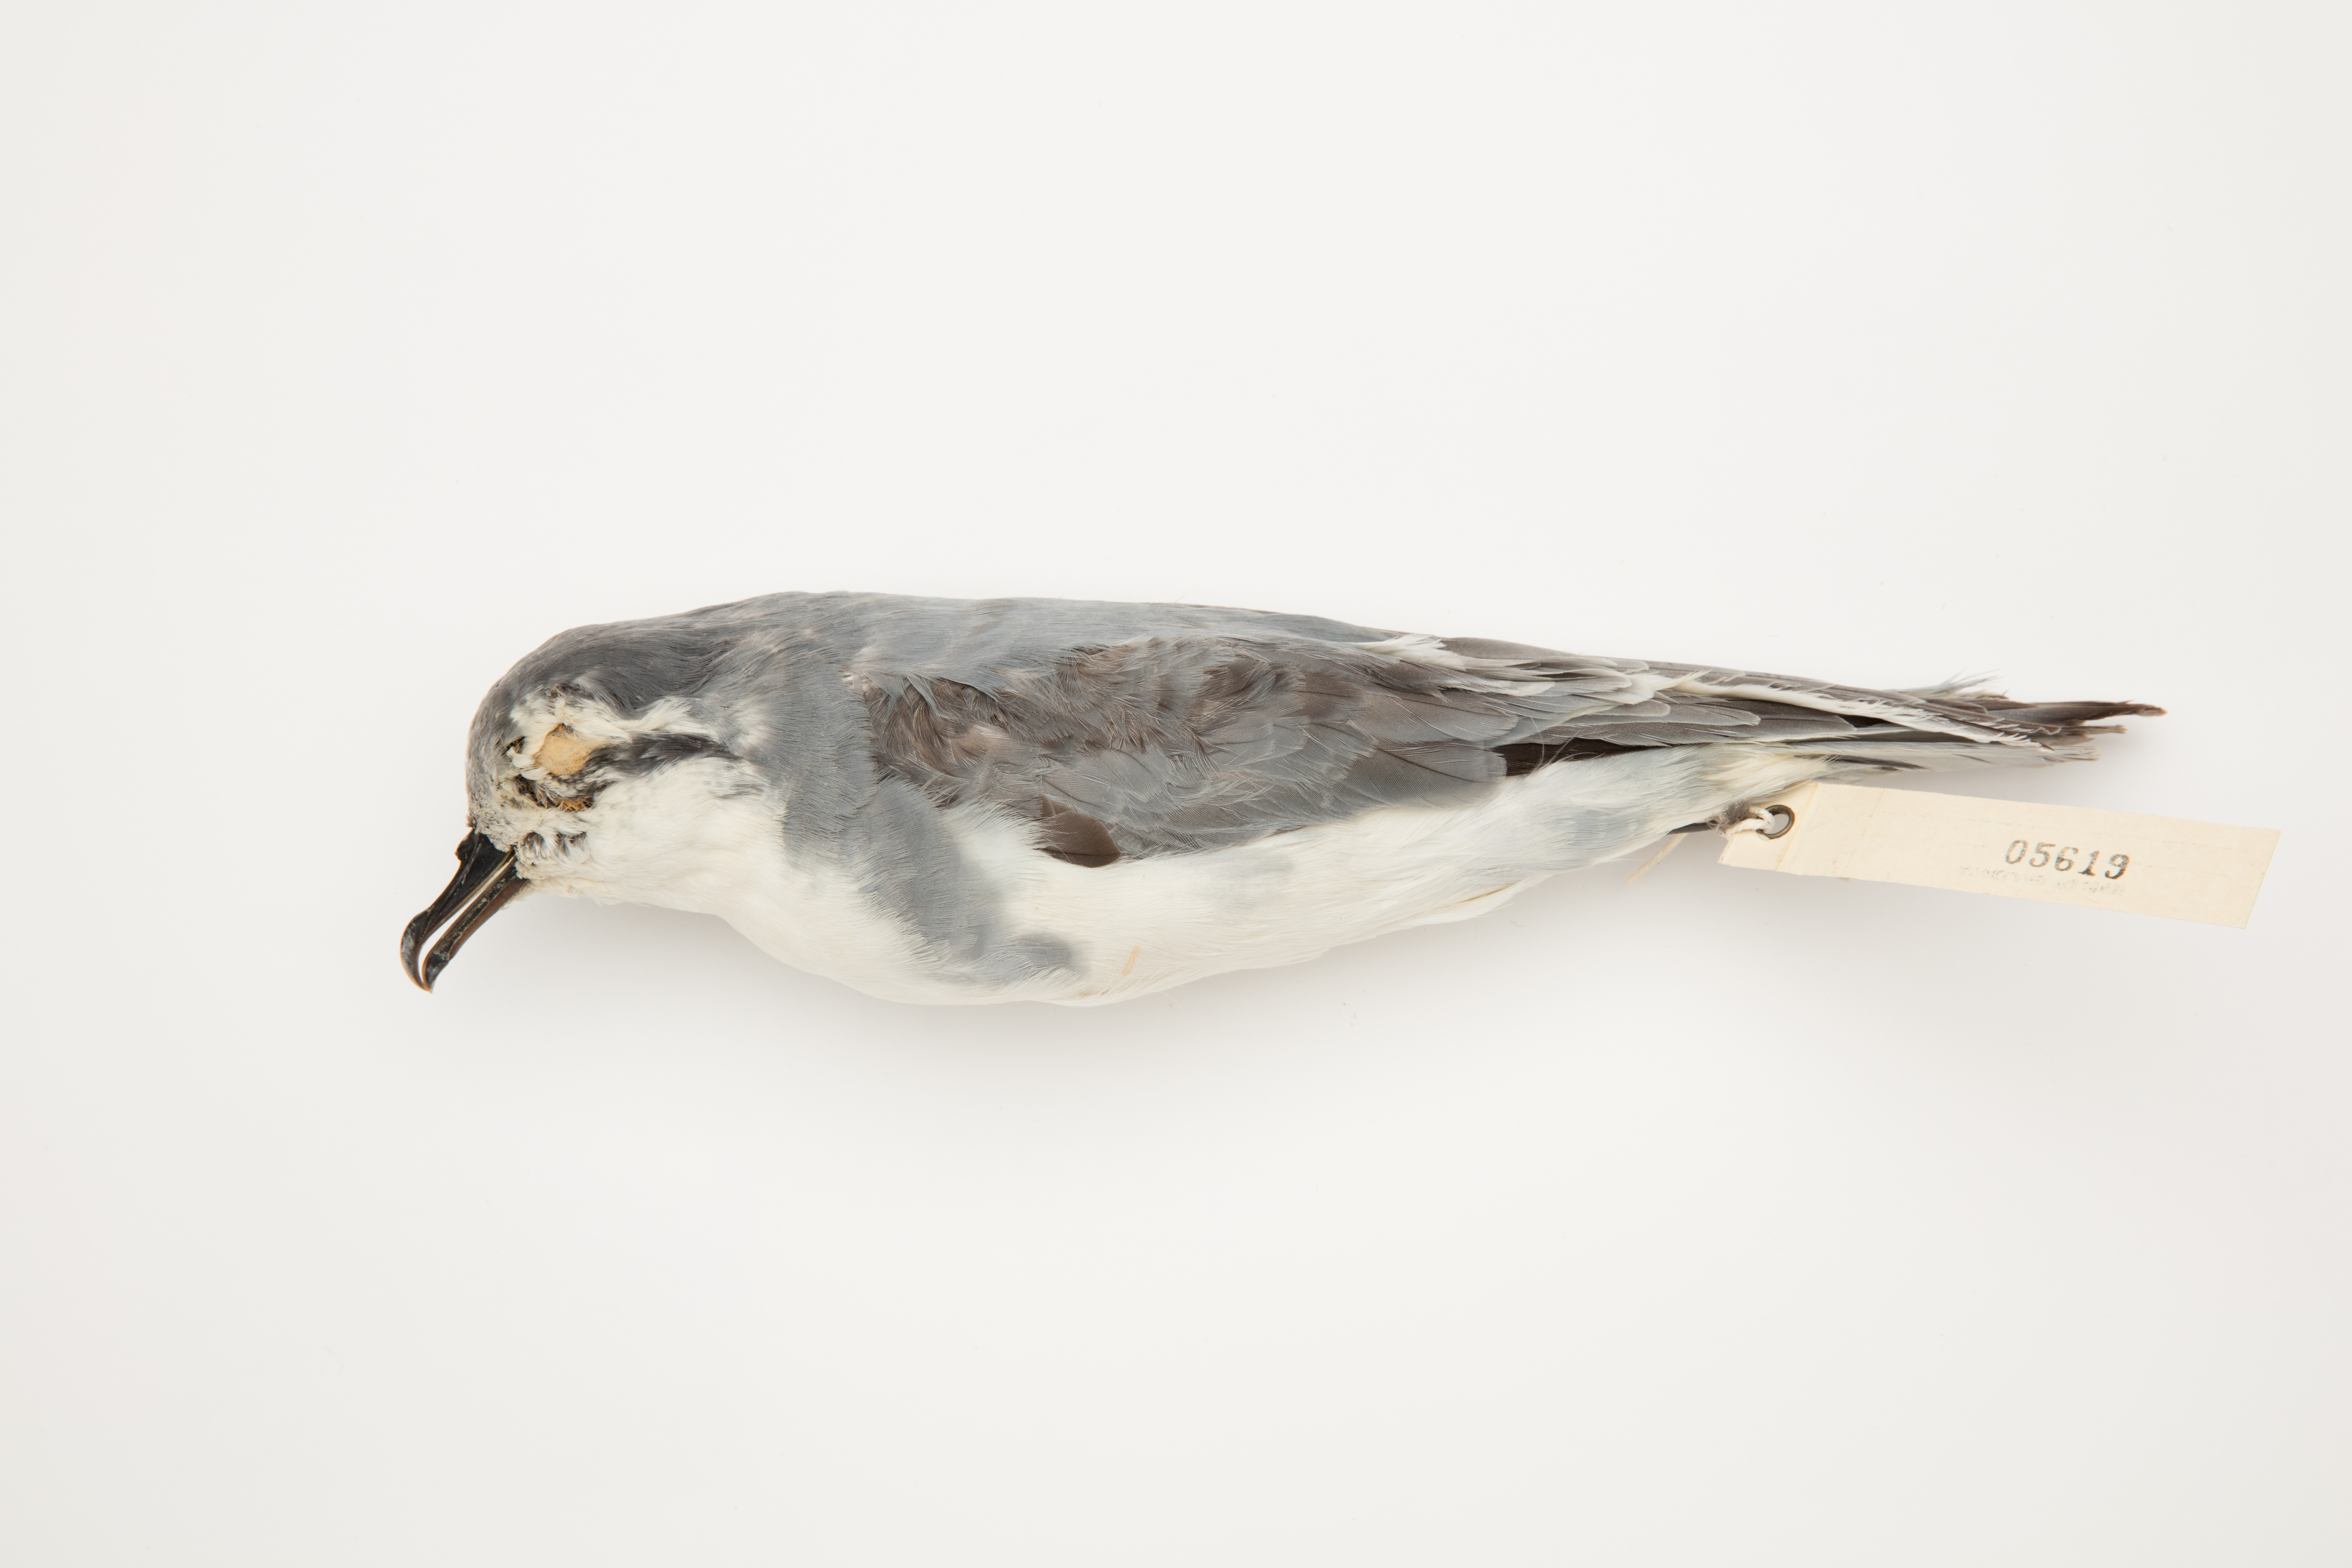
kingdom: Animalia
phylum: Chordata
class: Aves
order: Procellariiformes
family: Procellariidae
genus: Pachyptila
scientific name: Pachyptila belcheri
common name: Slender-billed prion
